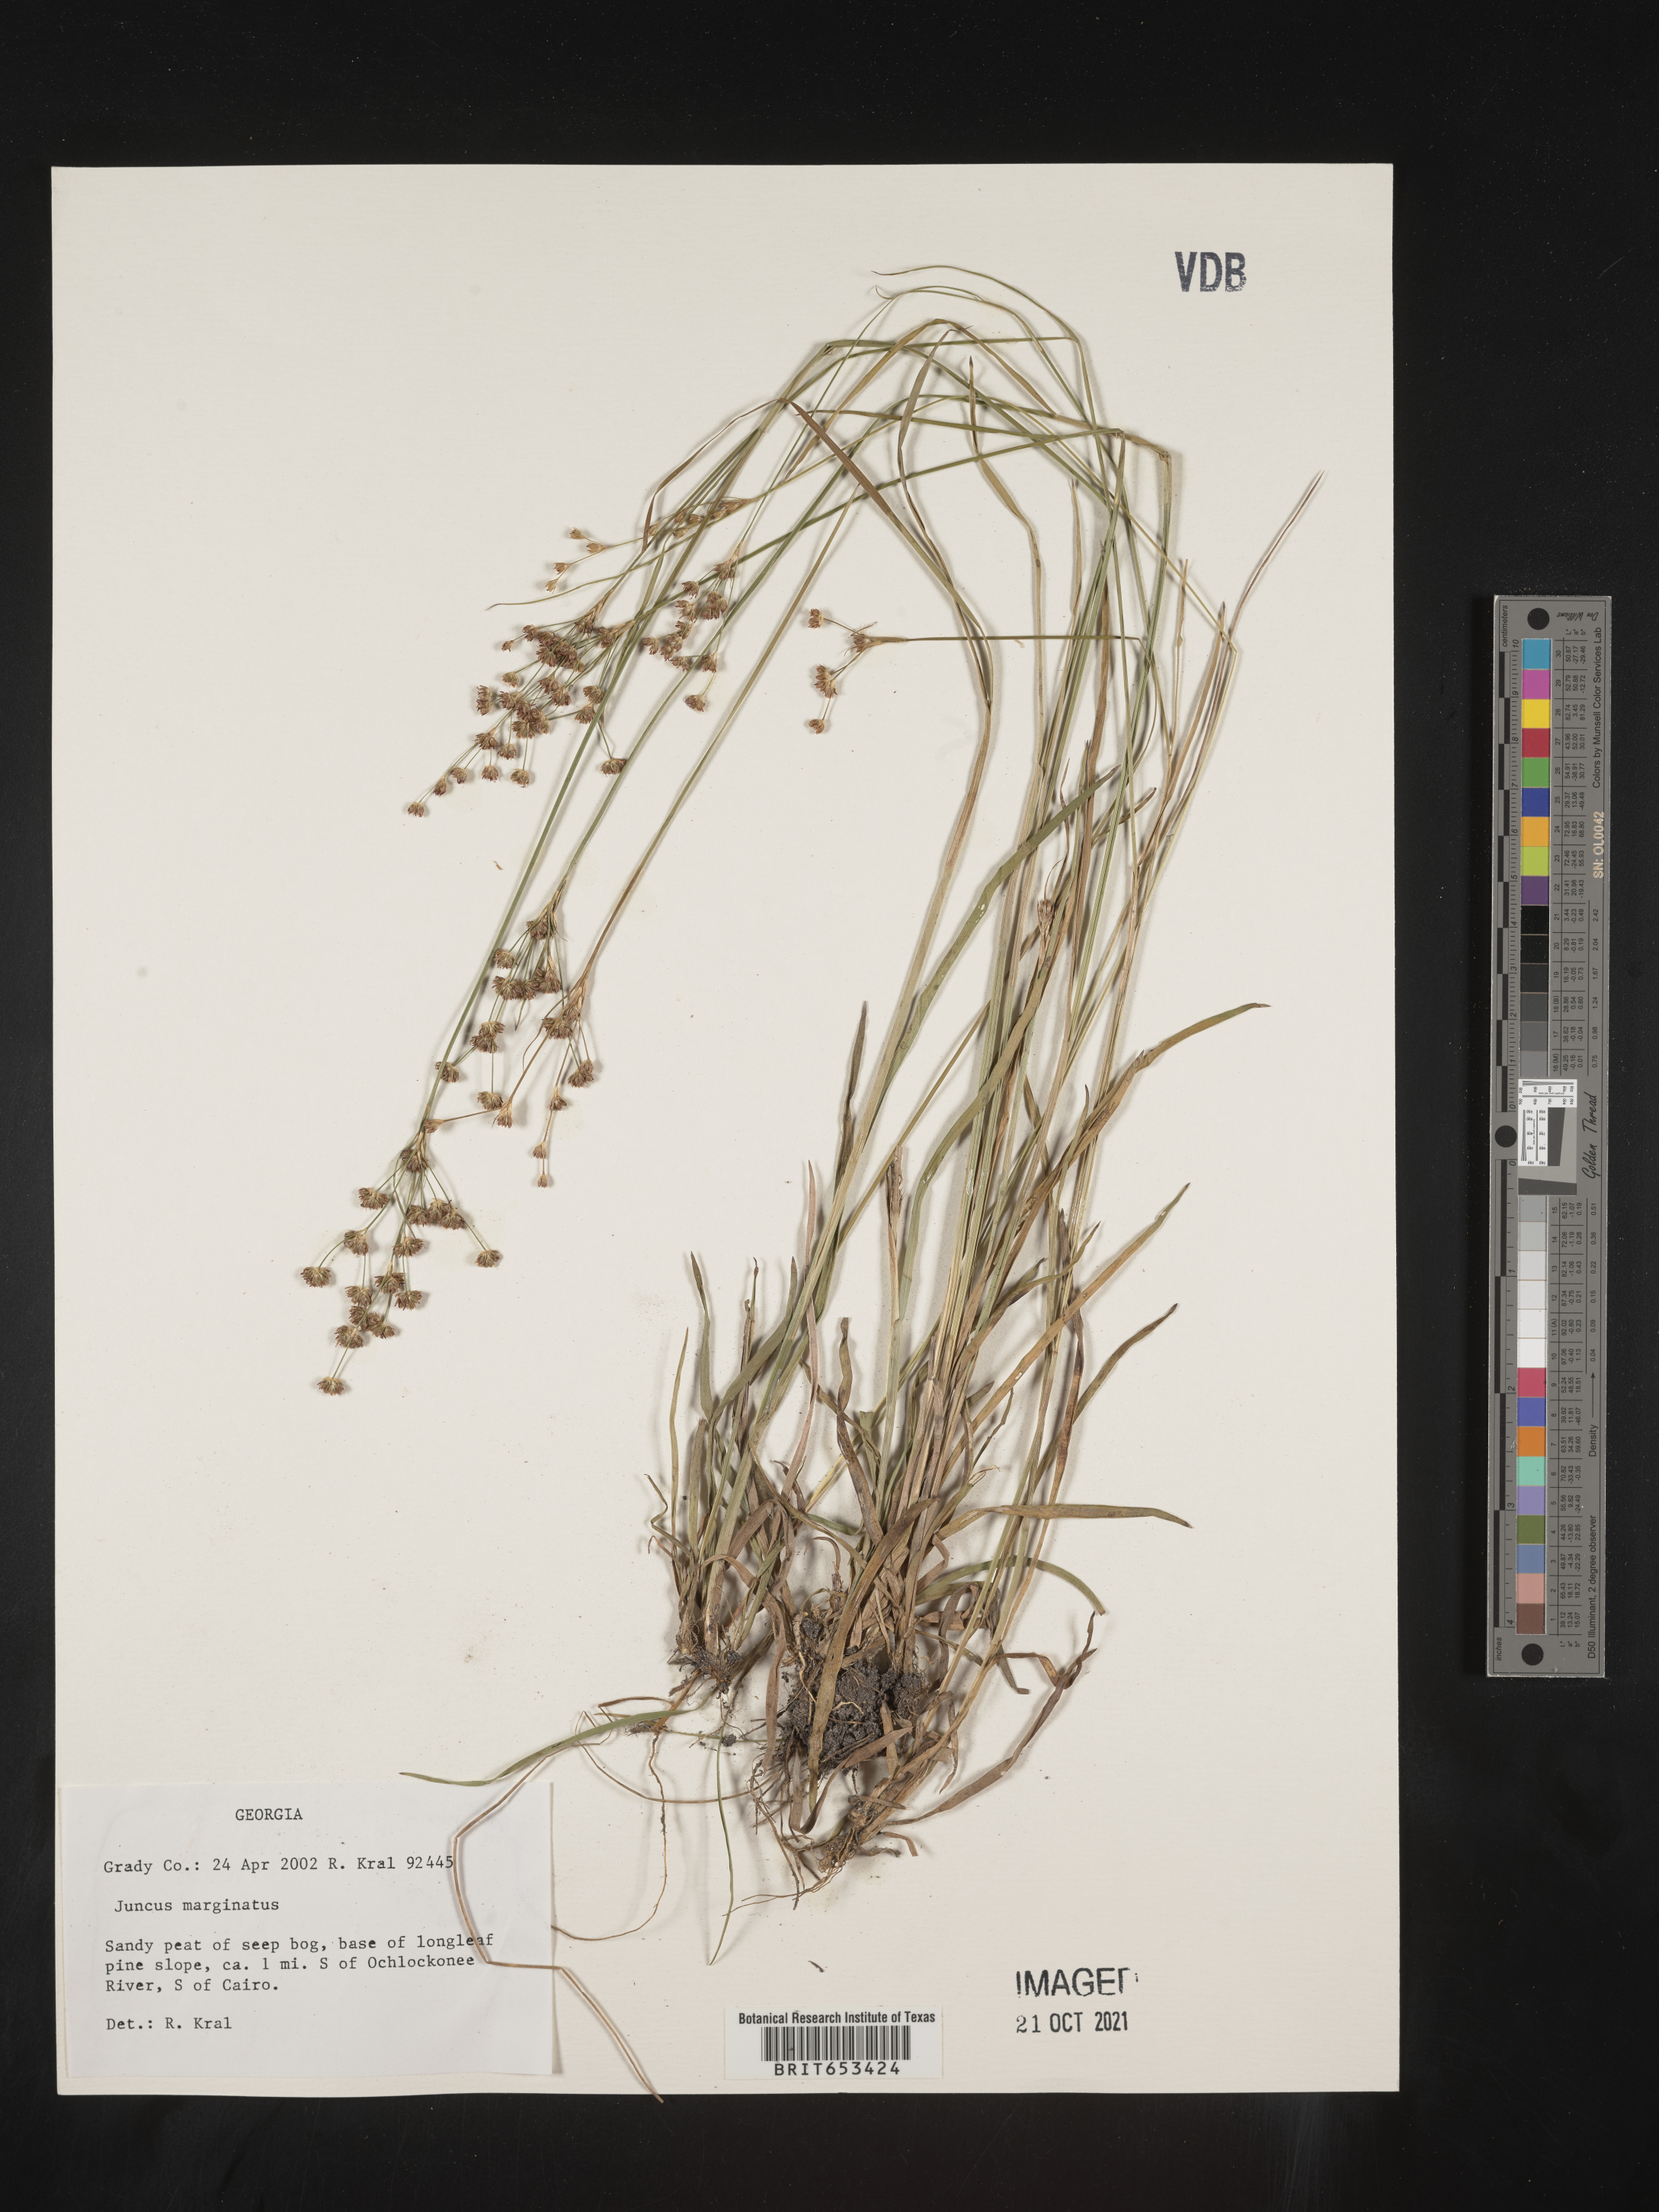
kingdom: Plantae
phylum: Tracheophyta
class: Liliopsida
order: Poales
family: Juncaceae
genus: Juncus
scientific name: Juncus marginatus
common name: Grass-leaf rush
